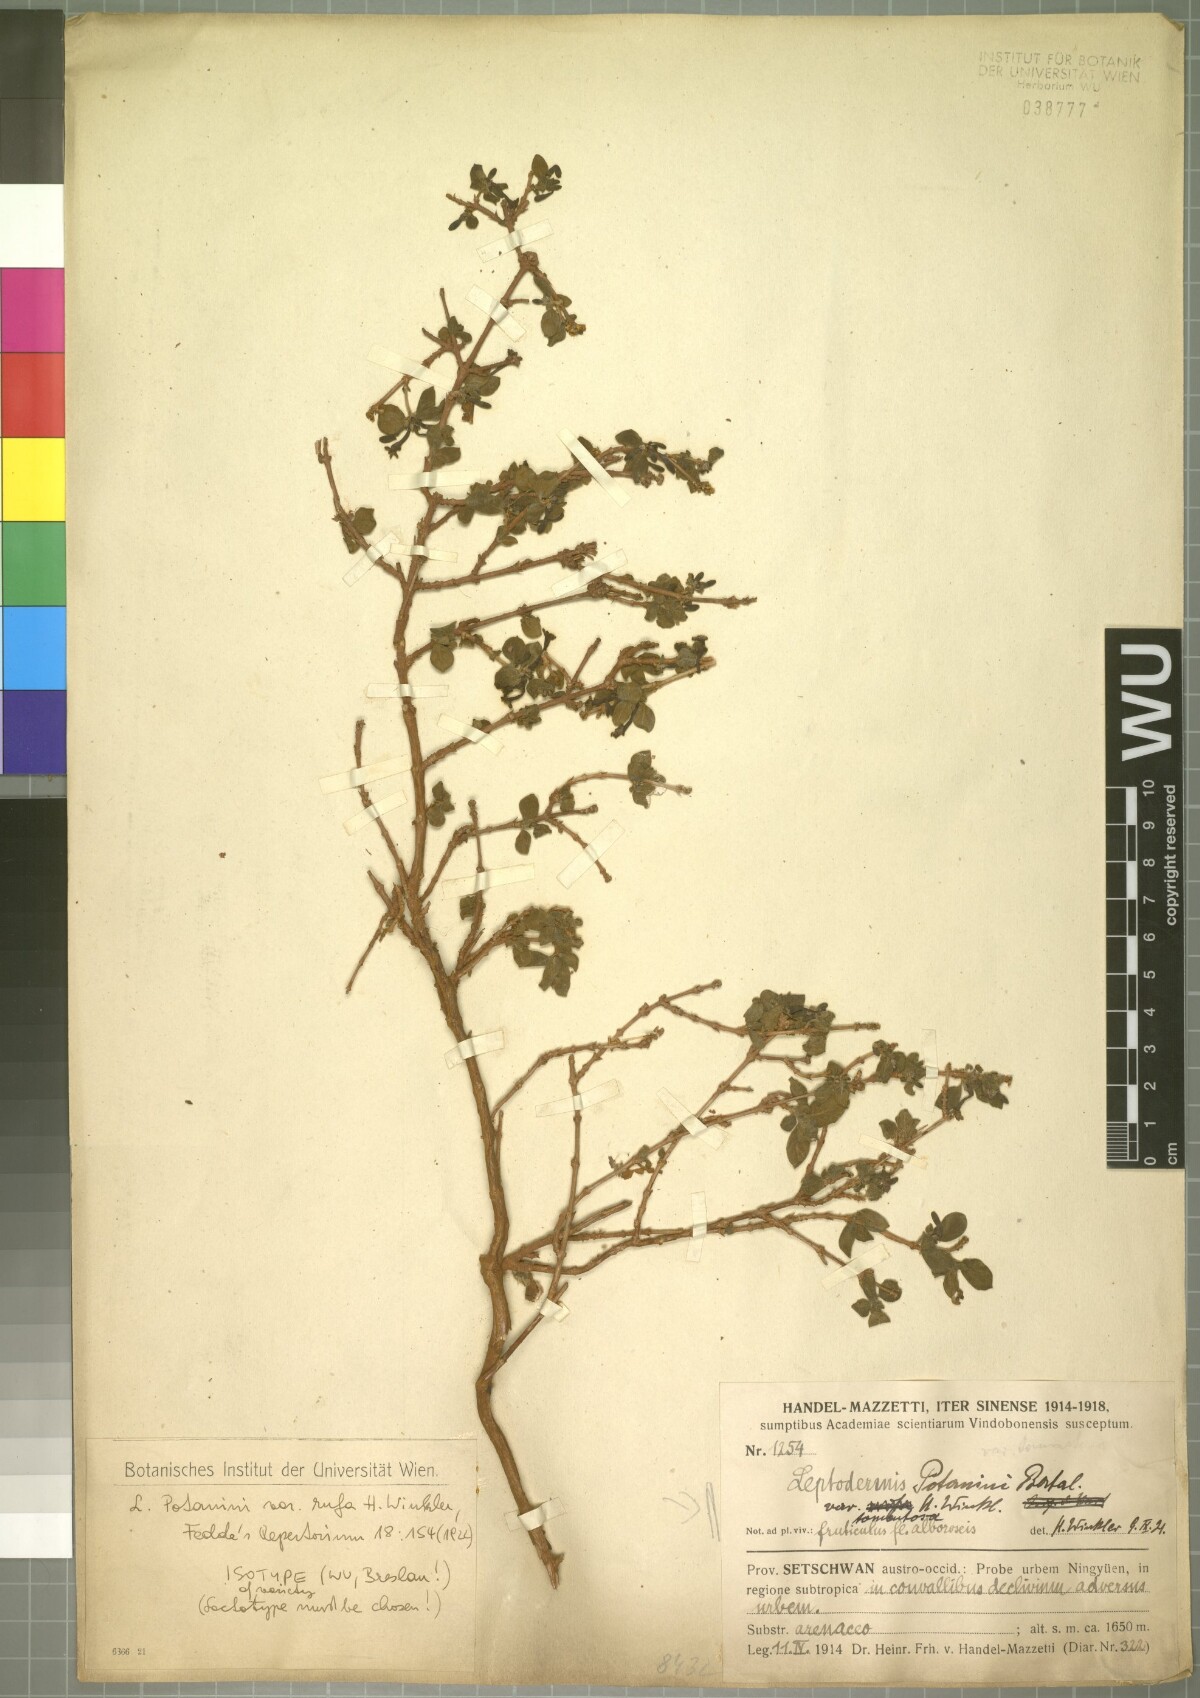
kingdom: Plantae
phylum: Tracheophyta
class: Magnoliopsida
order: Gentianales
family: Rubiaceae
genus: Leptodermis
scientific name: Leptodermis potaninii
